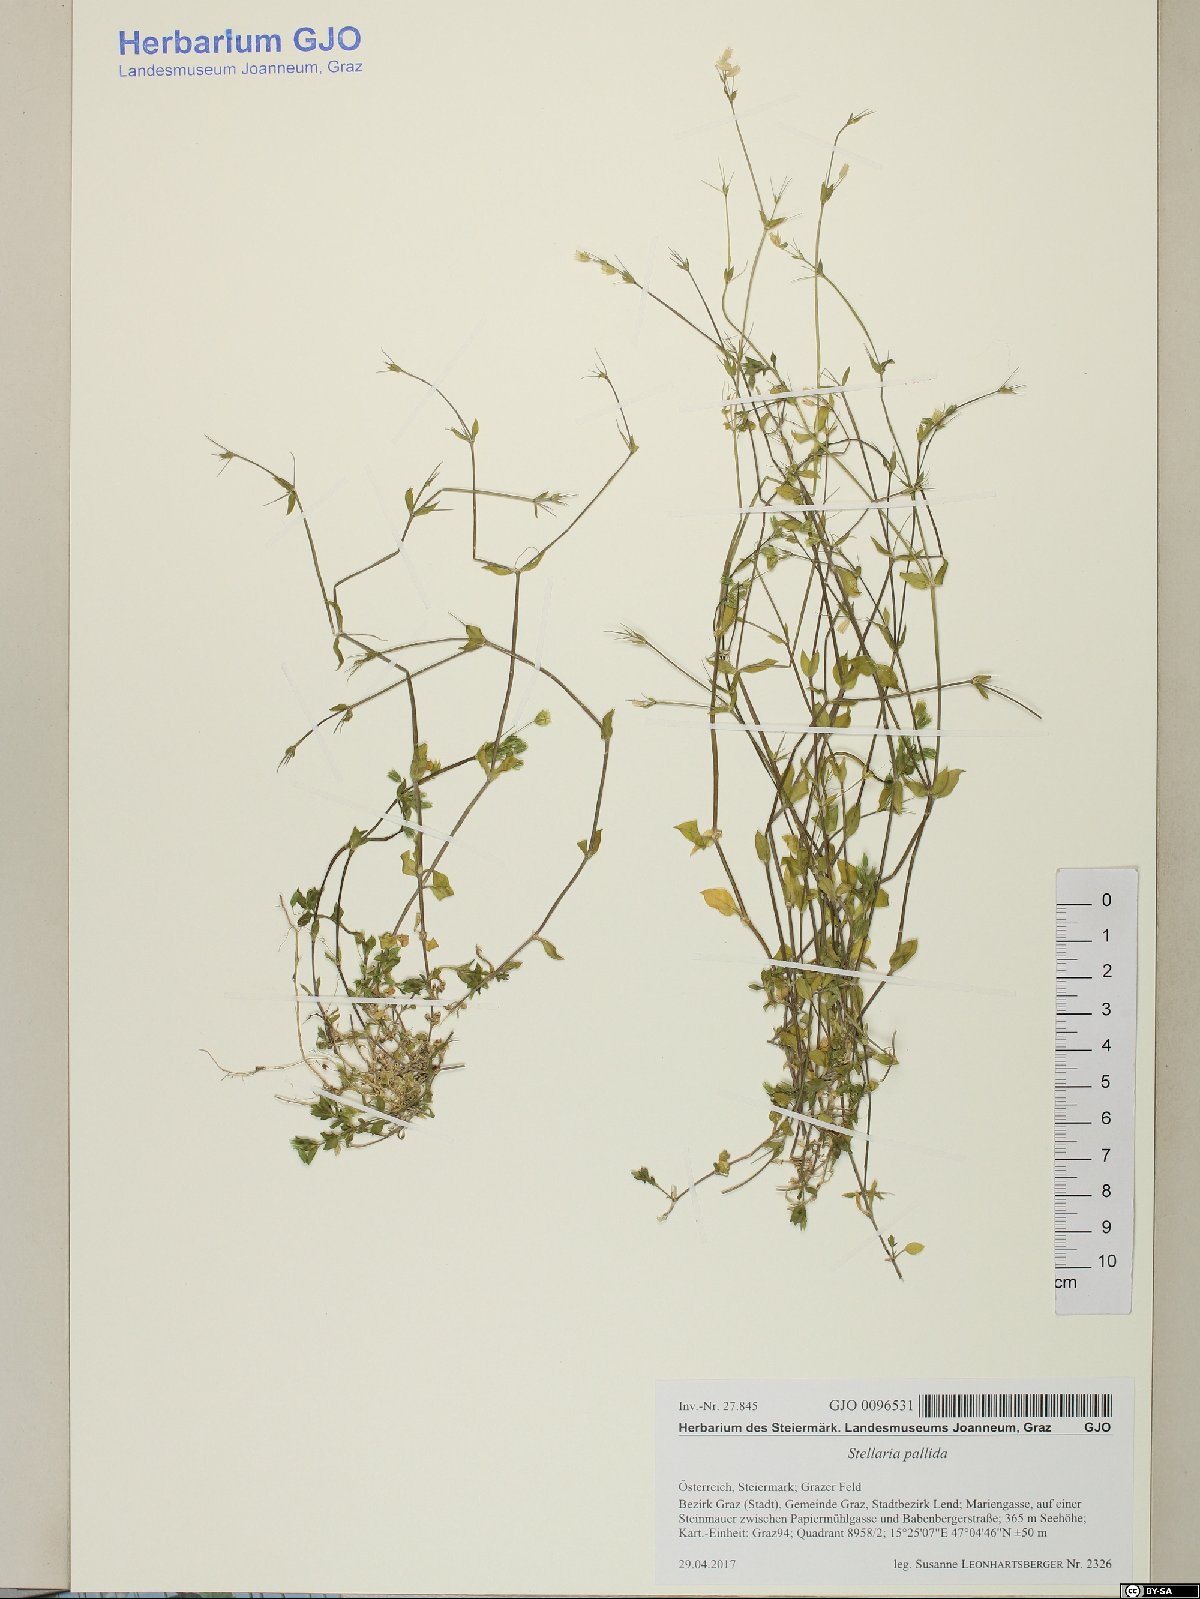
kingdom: Plantae
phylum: Tracheophyta
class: Magnoliopsida
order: Caryophyllales
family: Caryophyllaceae
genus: Stellaria
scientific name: Stellaria apetala
